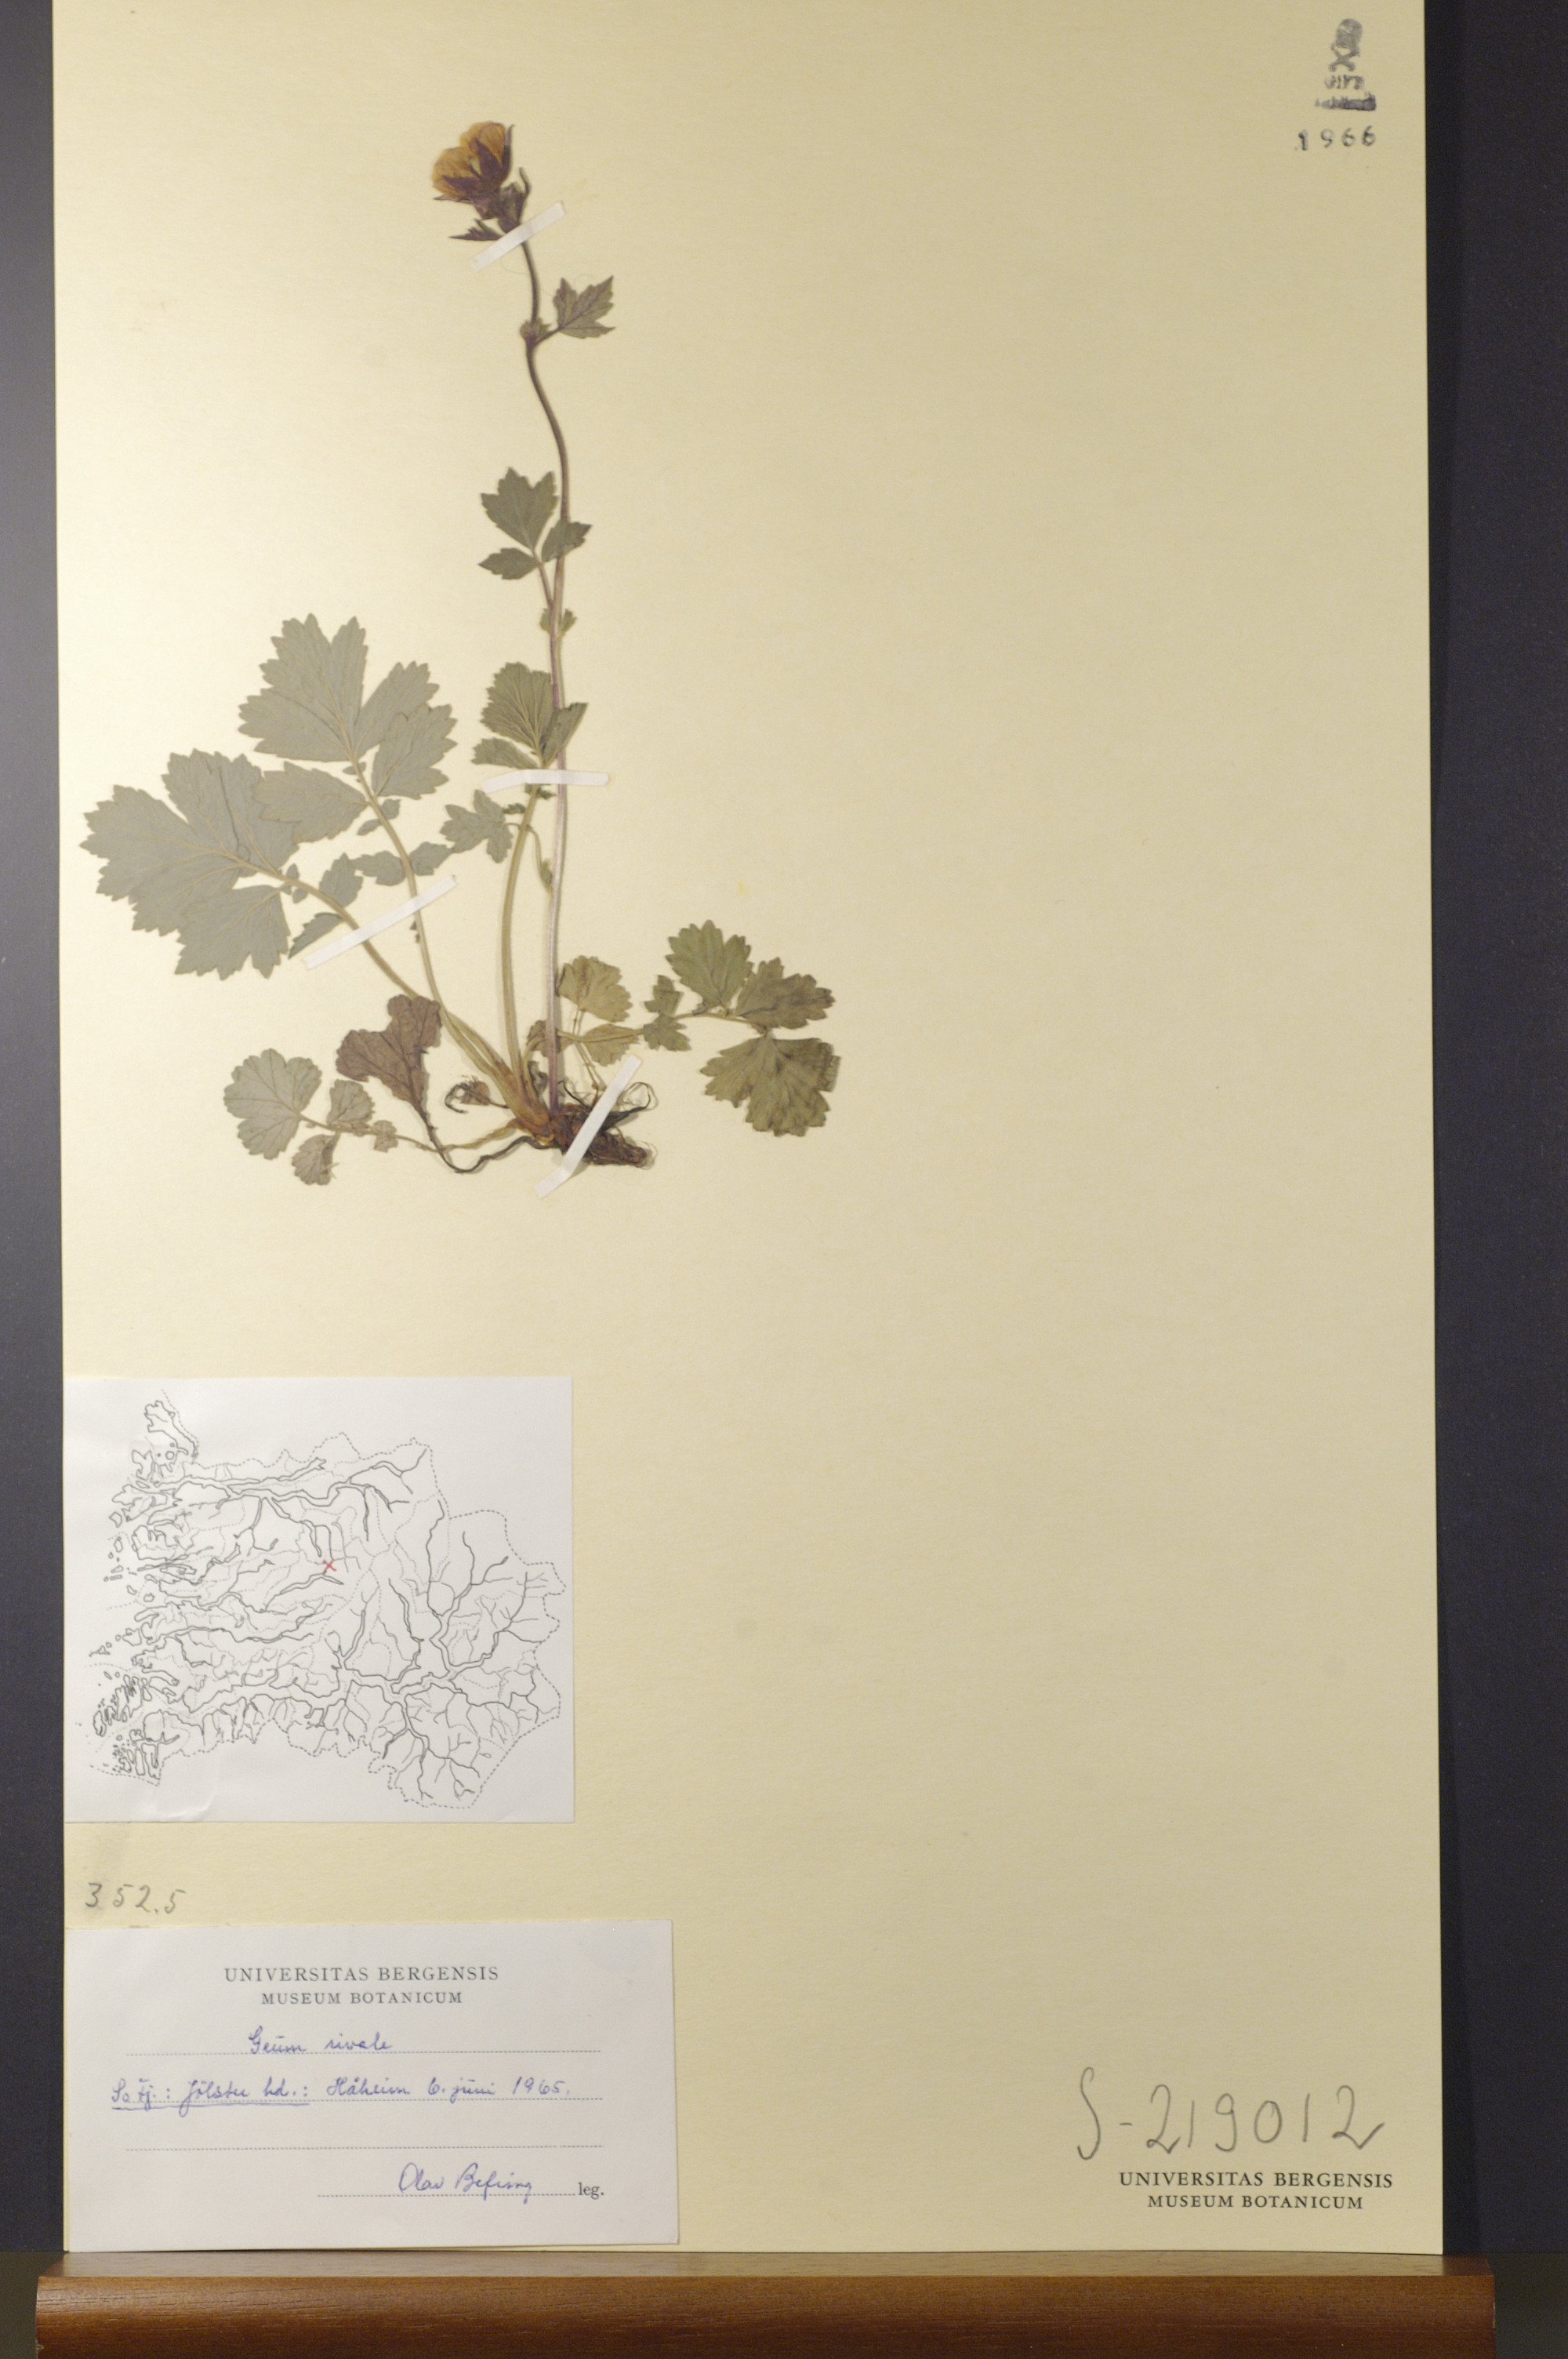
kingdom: Plantae
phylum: Tracheophyta
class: Magnoliopsida
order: Rosales
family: Rosaceae
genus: Geum
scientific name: Geum rivale
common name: Water avens
